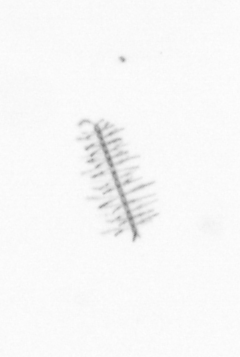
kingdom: Chromista
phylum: Ochrophyta
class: Bacillariophyceae
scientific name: Bacillariophyceae
